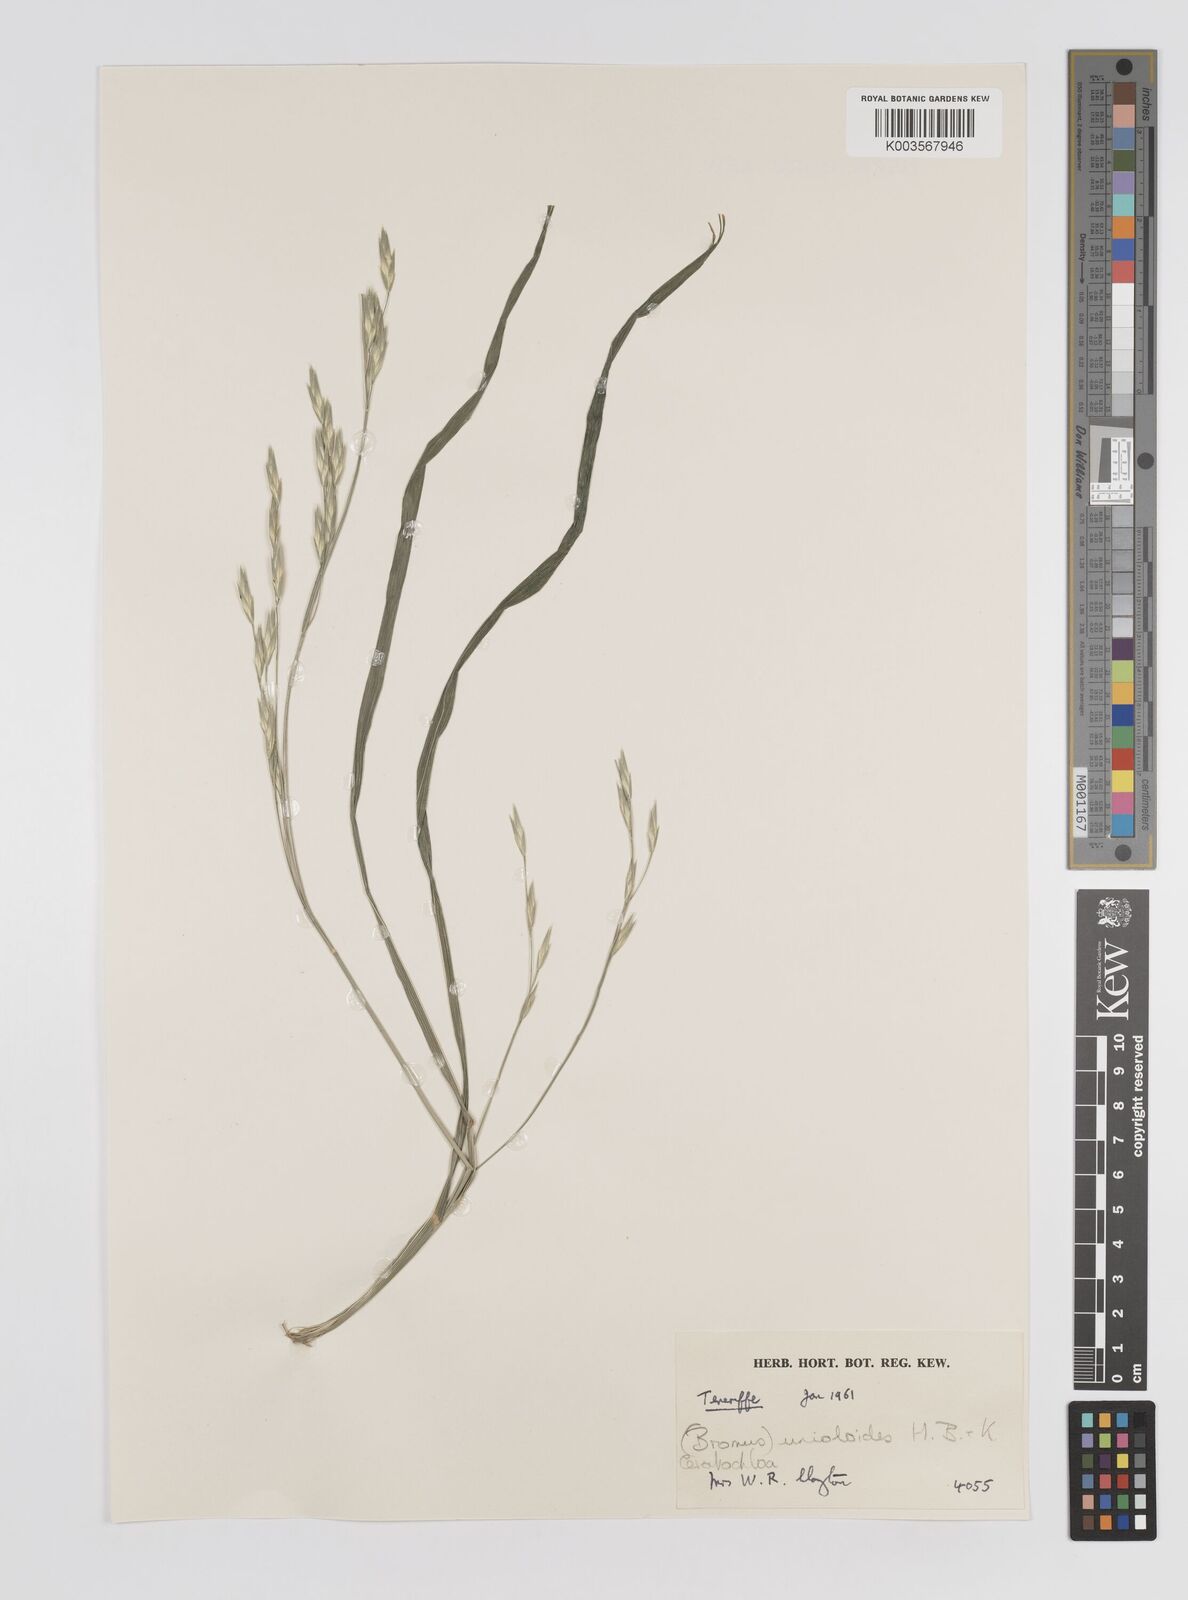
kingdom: Plantae
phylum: Tracheophyta
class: Liliopsida
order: Poales
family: Poaceae
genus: Bromus
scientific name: Bromus catharticus
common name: Rescuegrass
